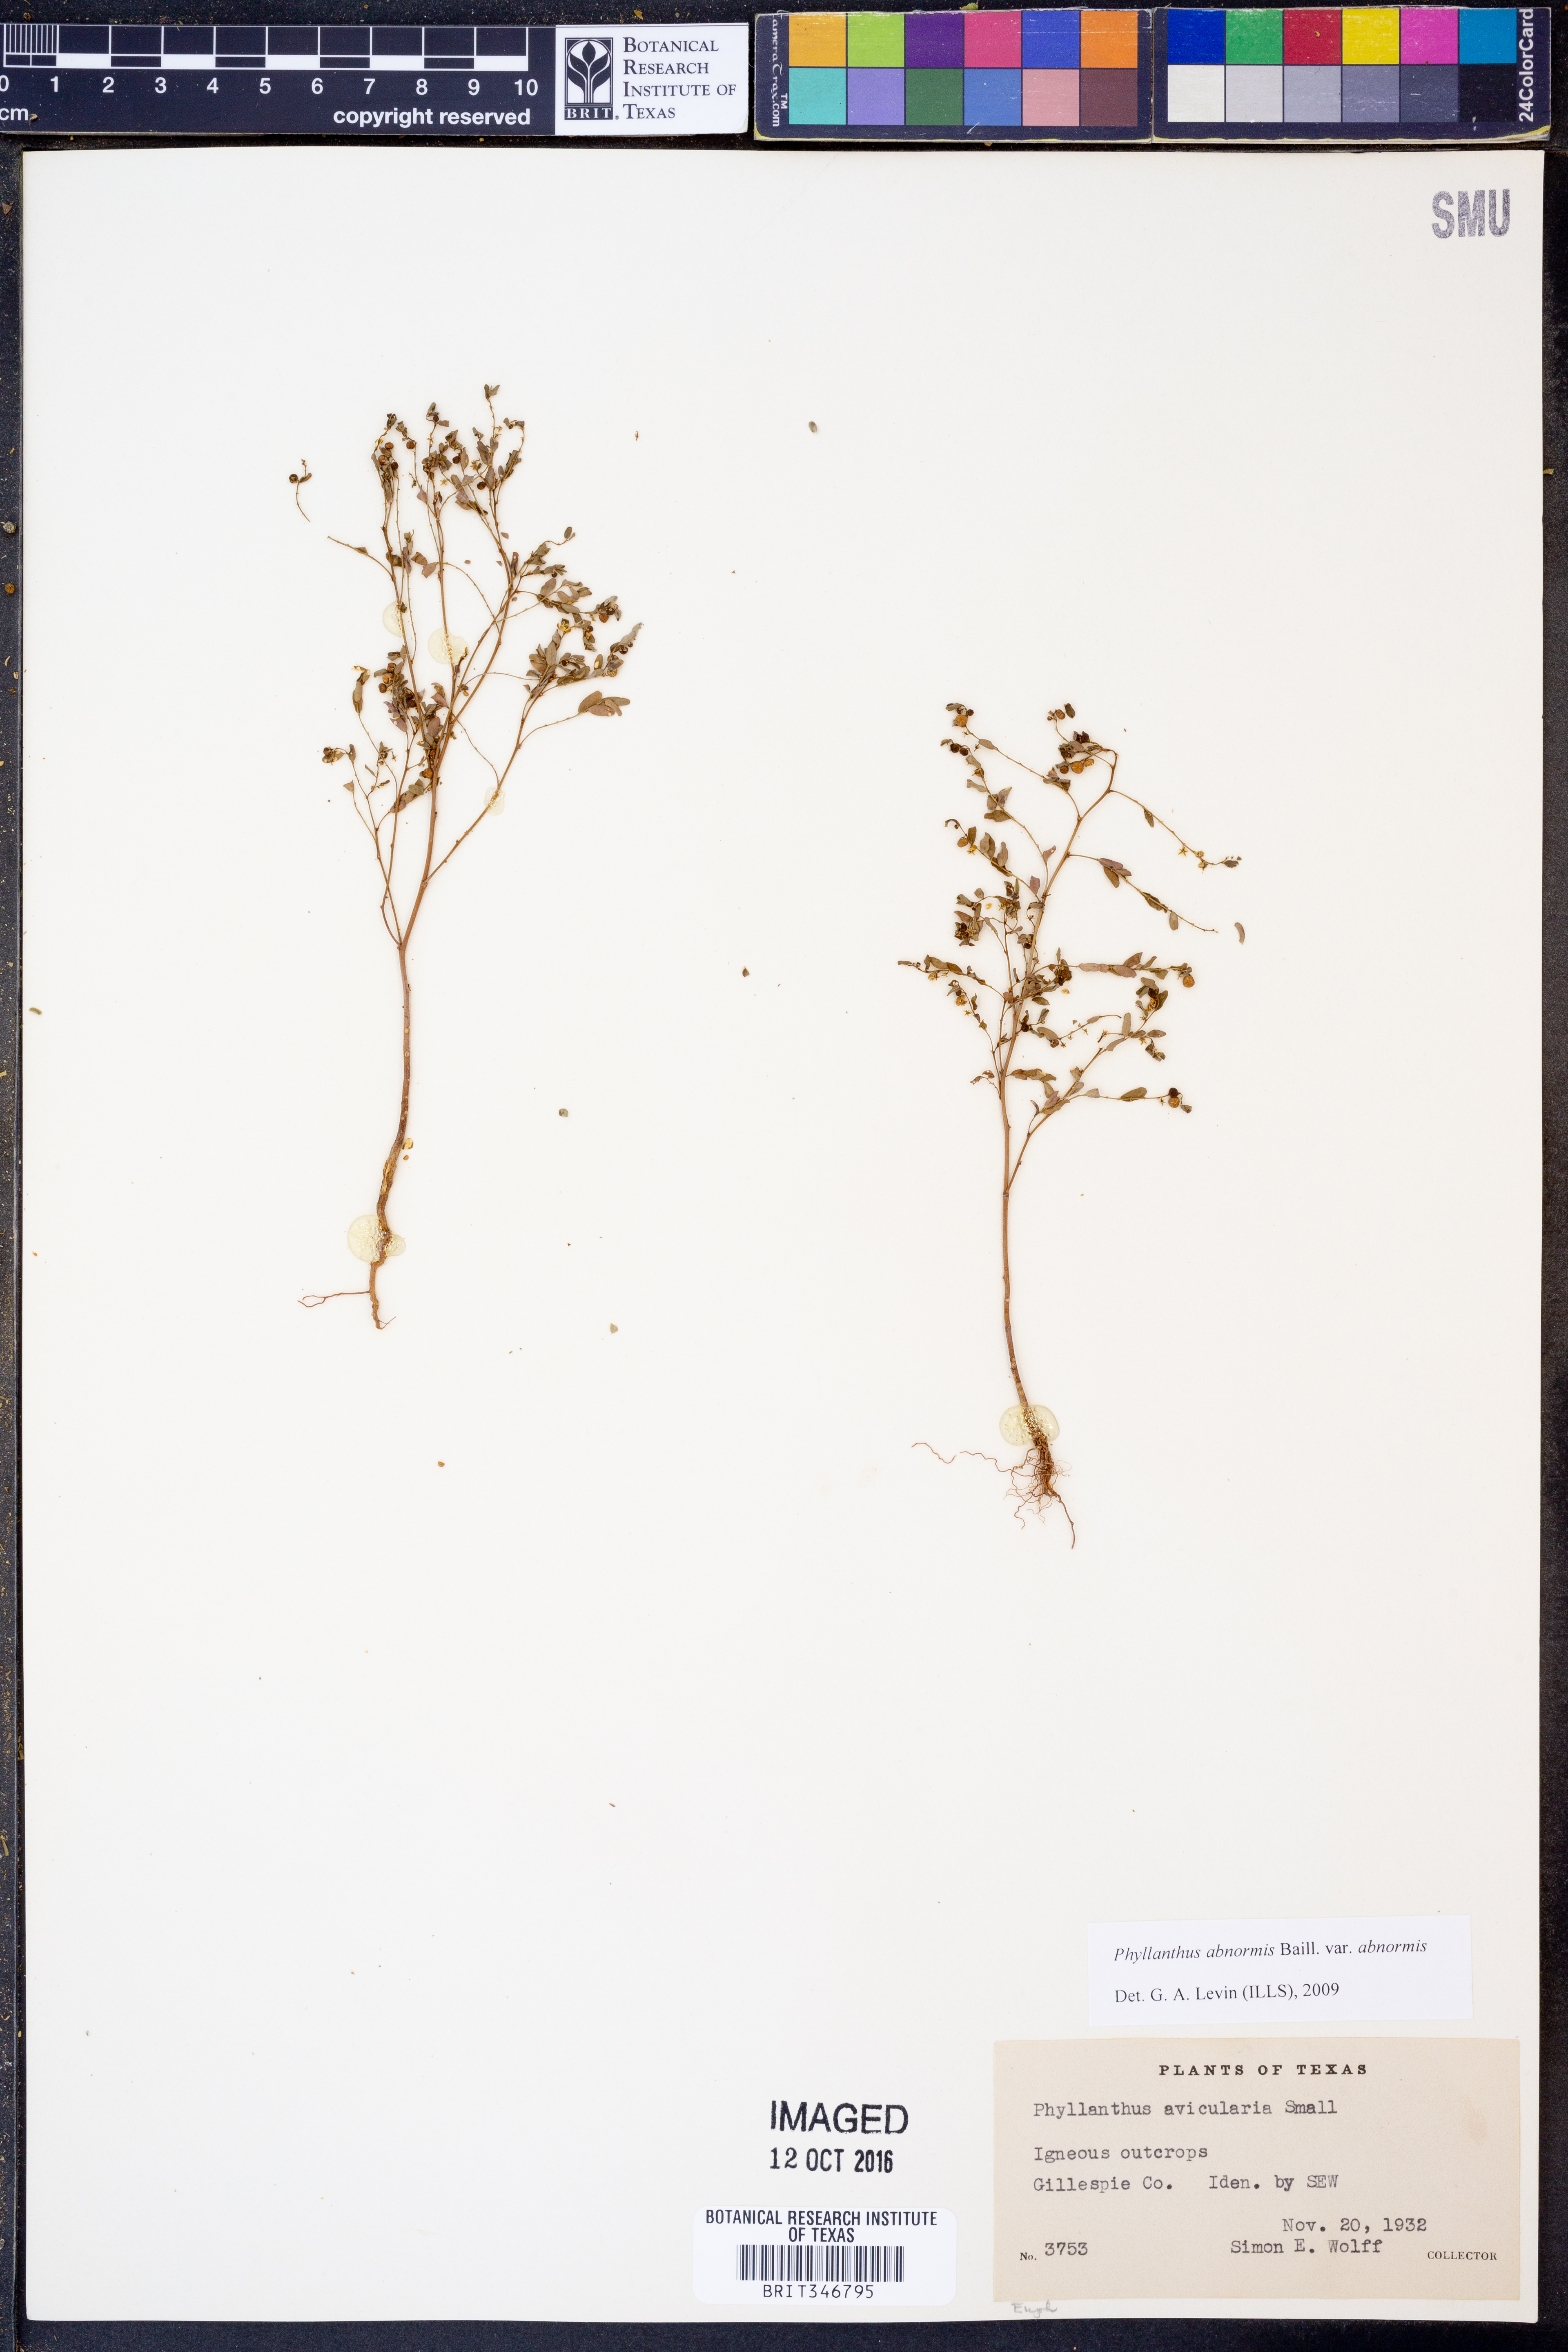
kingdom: Plantae
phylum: Tracheophyta
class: Magnoliopsida
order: Malpighiales
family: Phyllanthaceae
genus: Phyllanthus
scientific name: Phyllanthus abnormis
